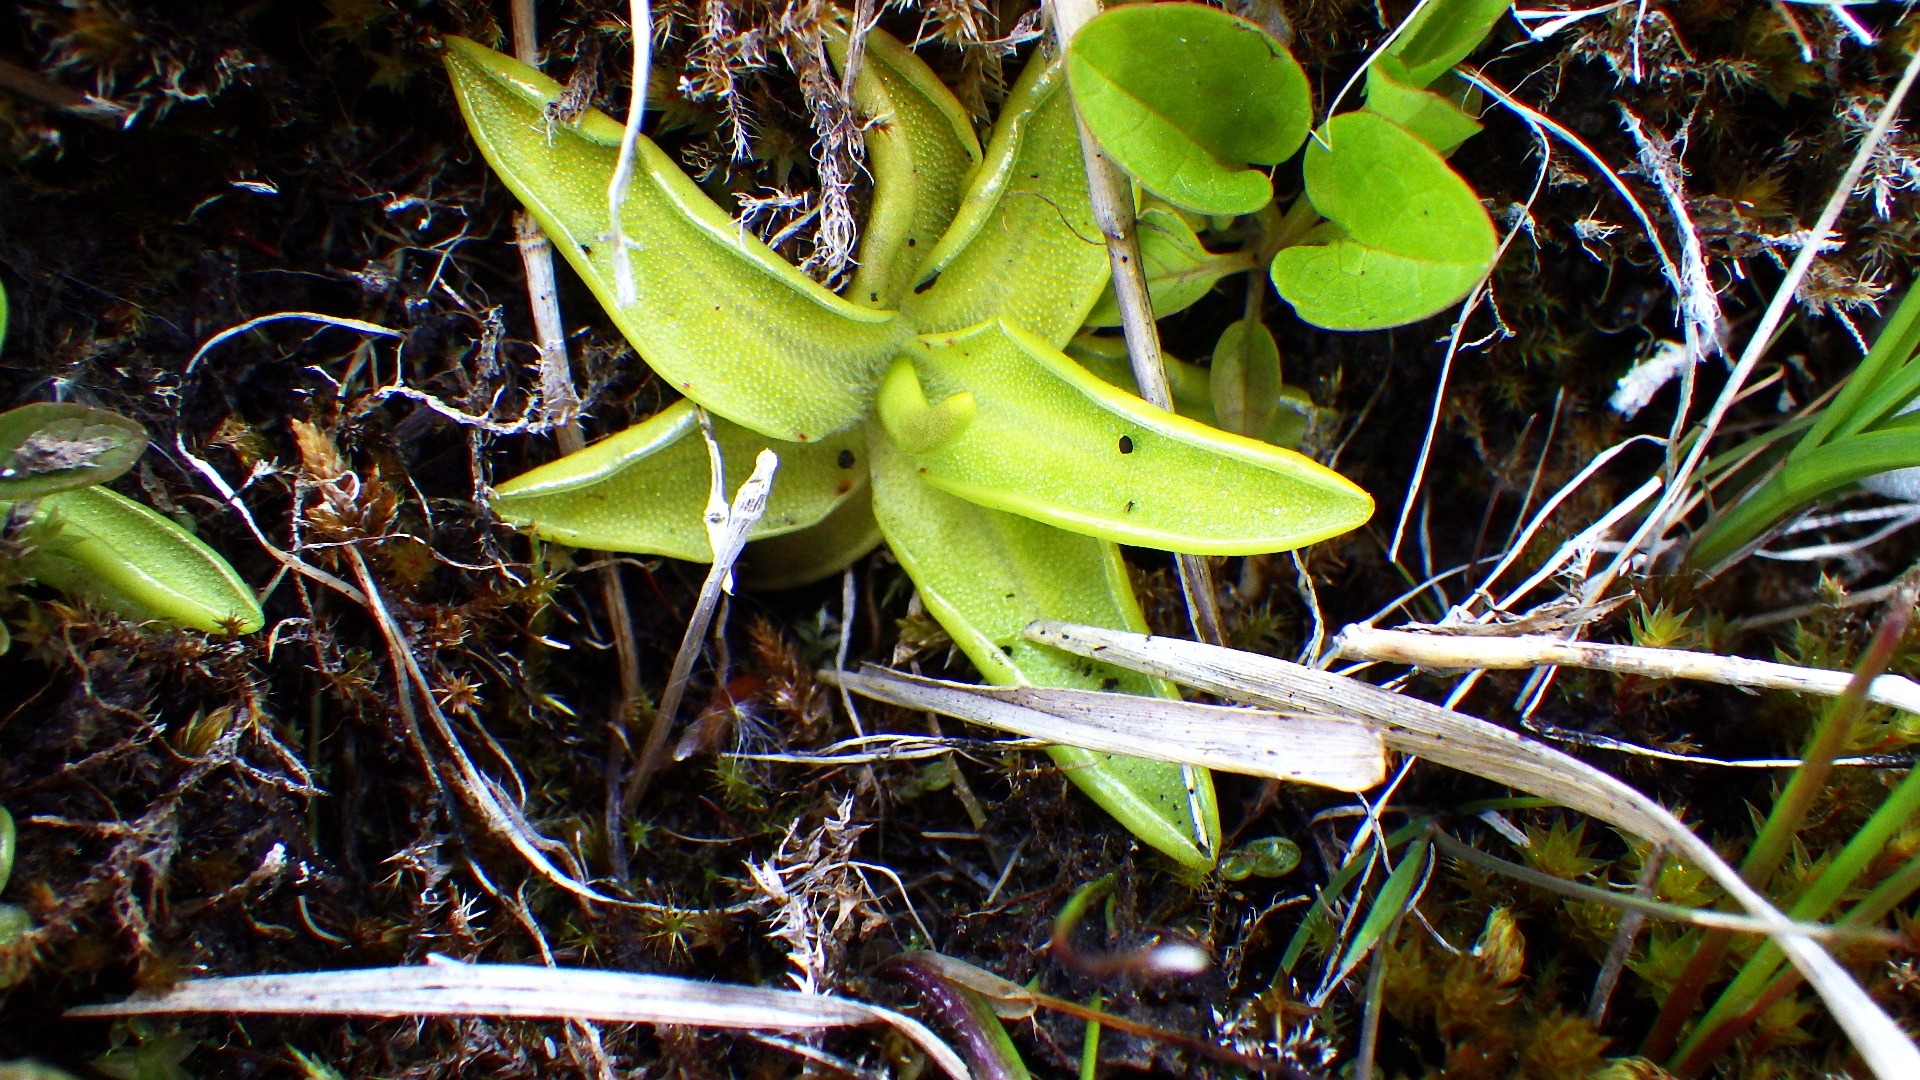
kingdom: Plantae
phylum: Tracheophyta
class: Magnoliopsida
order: Lamiales
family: Lentibulariaceae
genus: Pinguicula
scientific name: Pinguicula vulgaris
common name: Vibefedt
